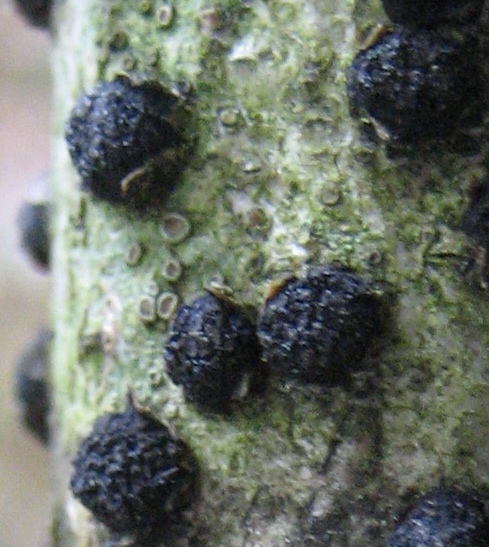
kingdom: Fungi
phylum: Ascomycota
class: Sordariomycetes
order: Xylariales
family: Diatrypaceae
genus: Diatrypella
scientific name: Diatrypella quercina
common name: ege-kulskorpe
